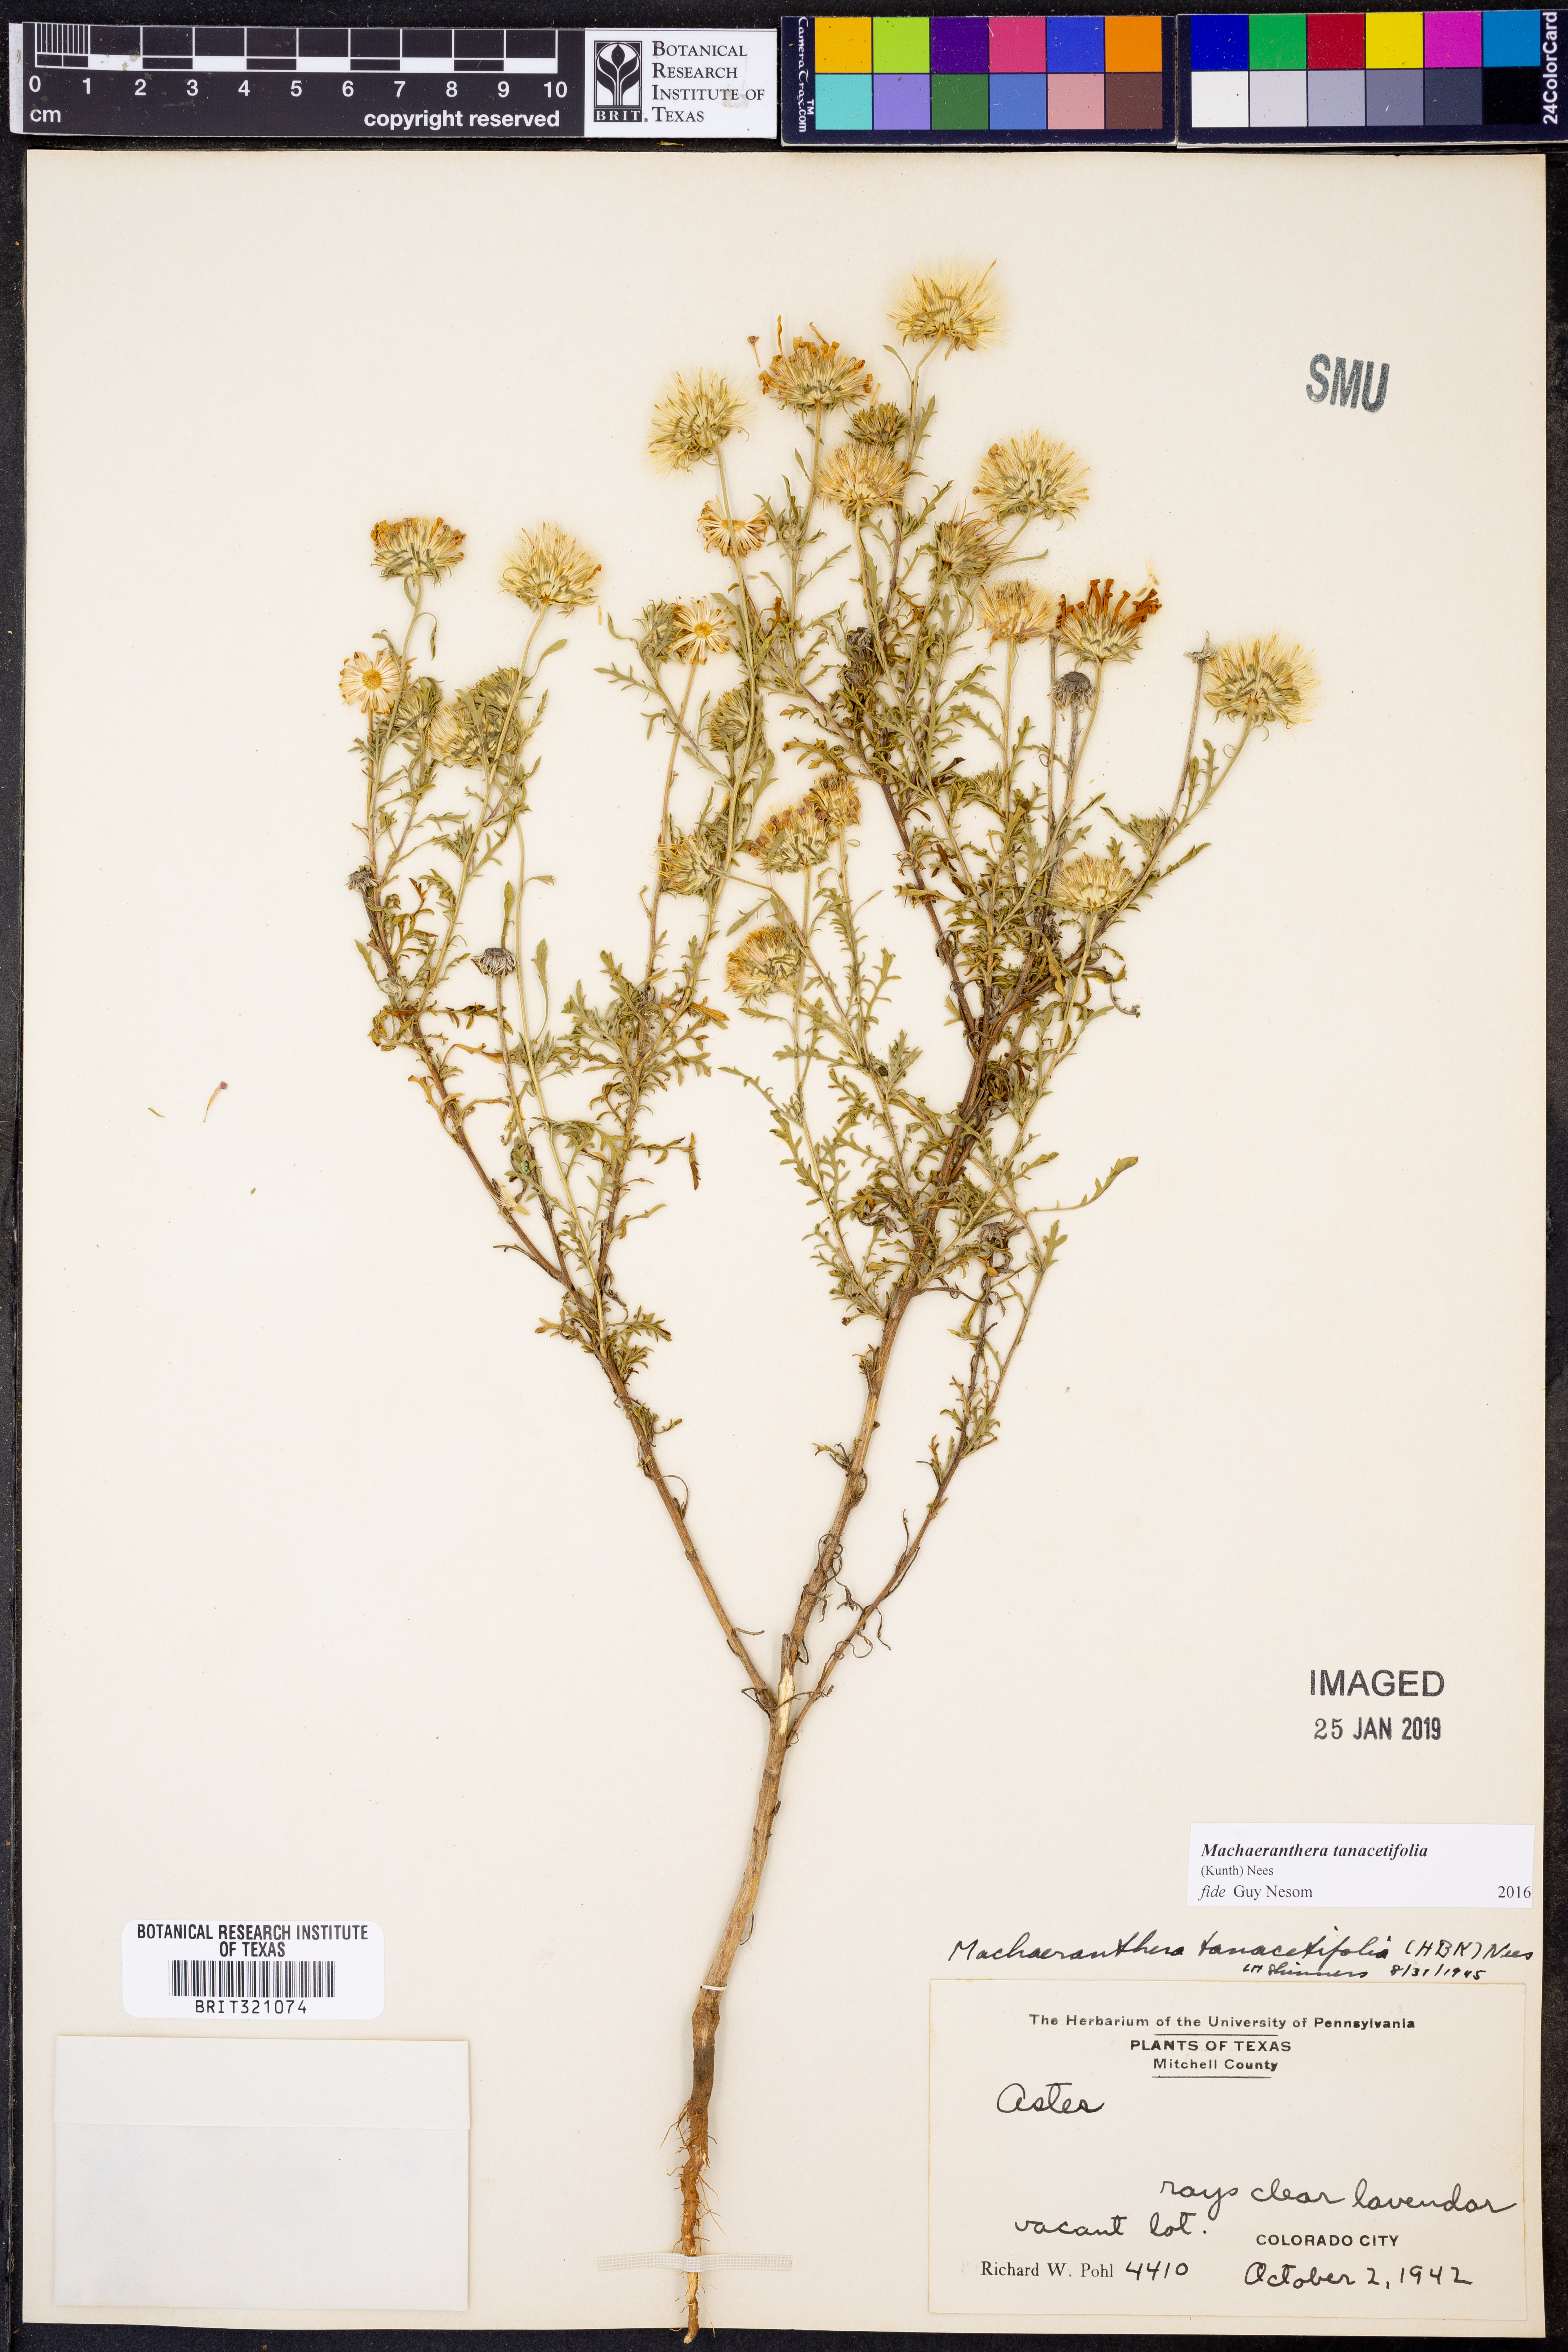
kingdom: Plantae
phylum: Tracheophyta
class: Magnoliopsida
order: Asterales
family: Asteraceae
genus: Machaeranthera
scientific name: Machaeranthera tanacetifolia
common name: Tansy-aster
